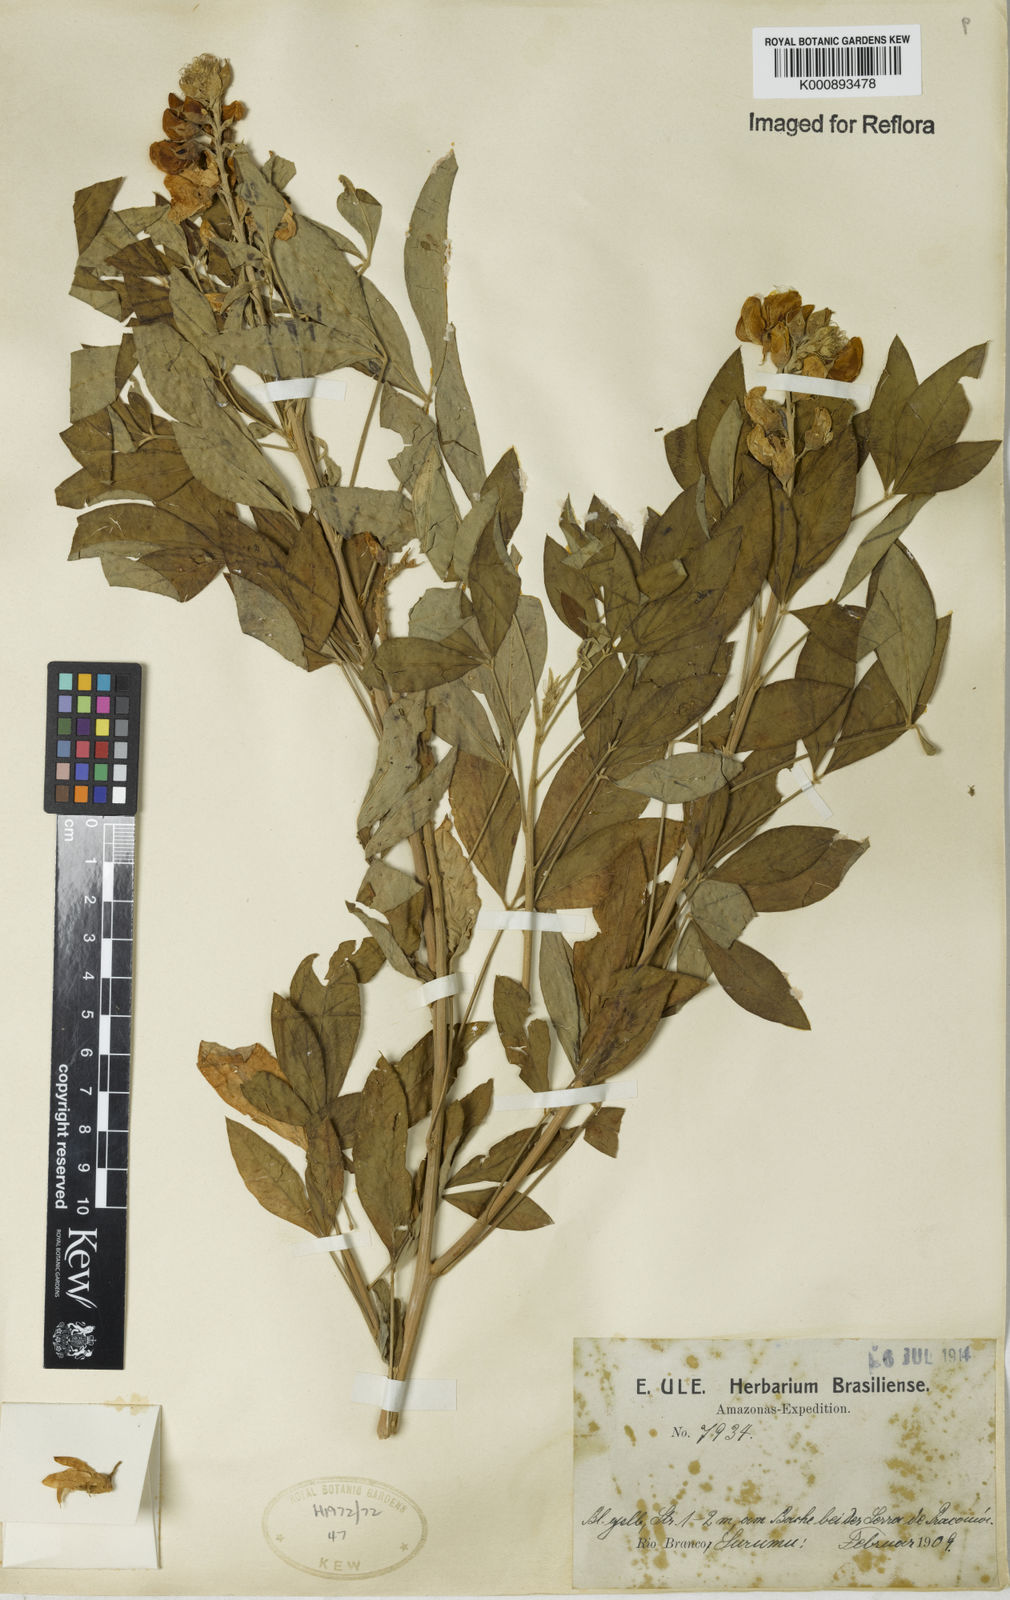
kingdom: Plantae
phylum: Tracheophyta
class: Magnoliopsida
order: Fabales
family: Fabaceae
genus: Crotalaria
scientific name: Crotalaria micans
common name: Caracas rattlebox
